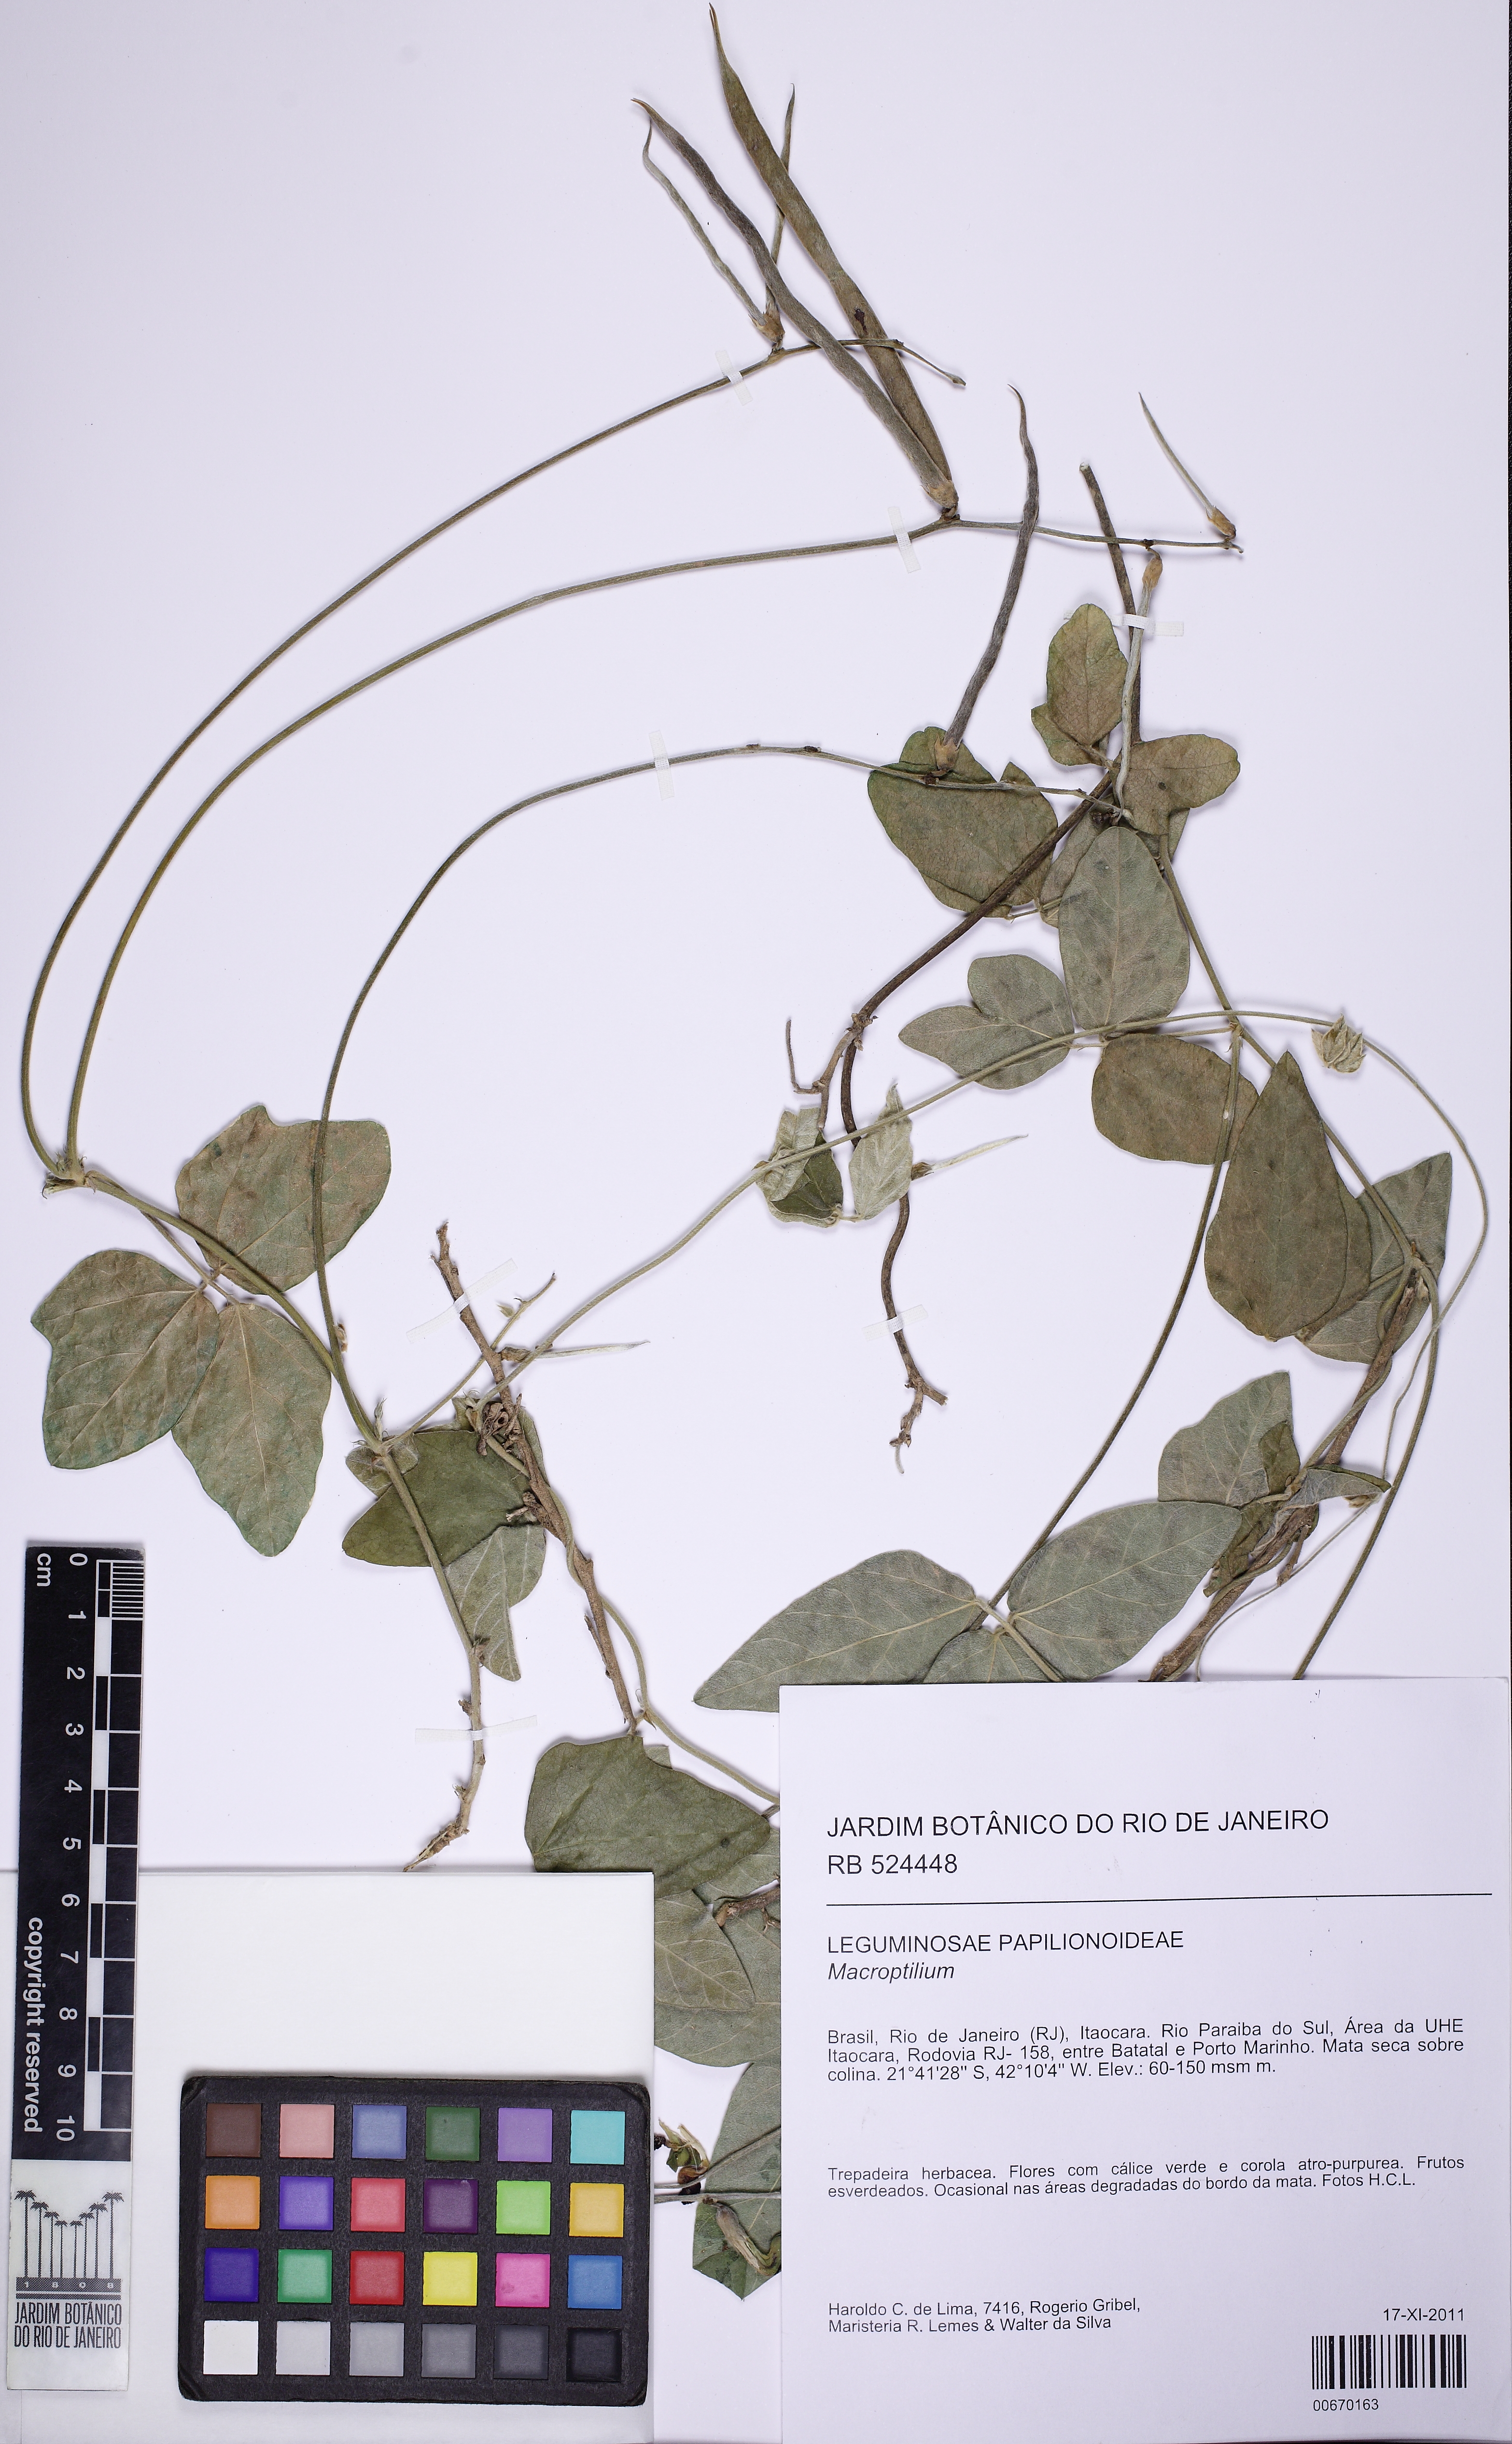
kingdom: Plantae
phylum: Tracheophyta
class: Magnoliopsida
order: Fabales
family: Fabaceae
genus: Macroptilium
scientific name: Macroptilium atropurpureum
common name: Purple bushbean
